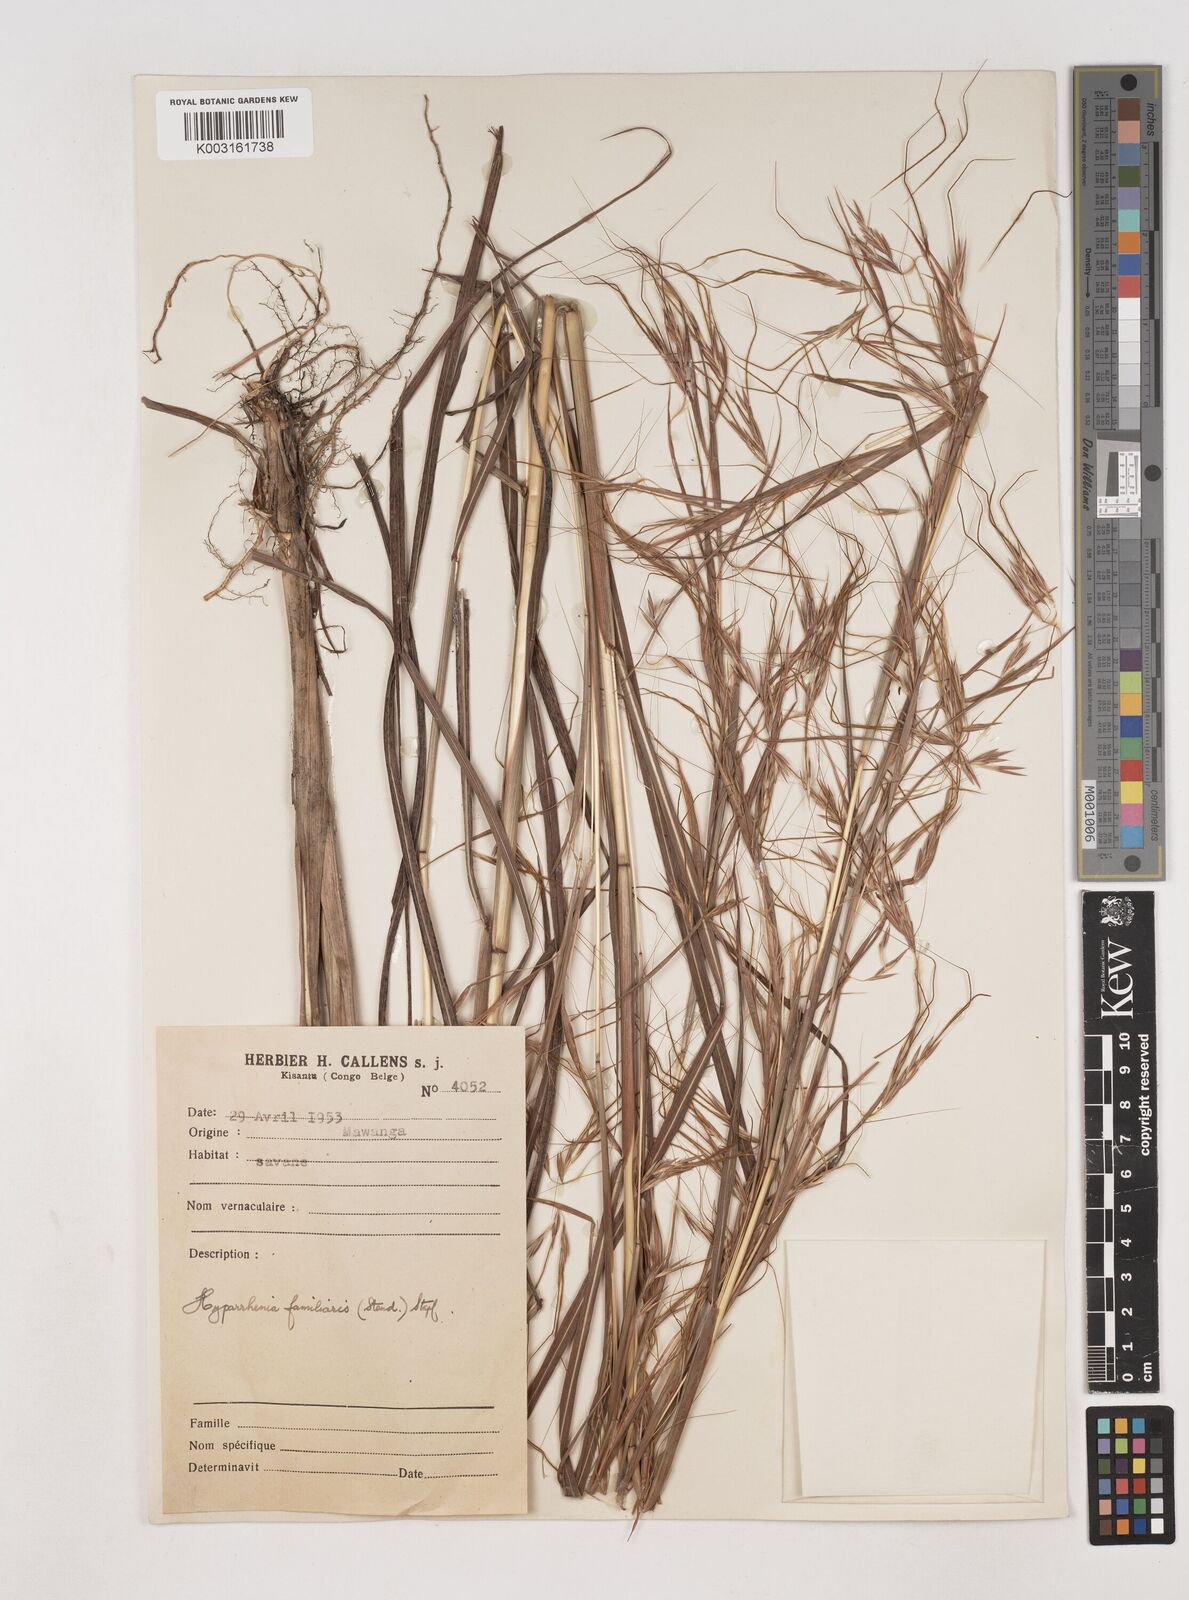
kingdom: Plantae
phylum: Tracheophyta
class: Liliopsida
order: Poales
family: Poaceae
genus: Hyparrhenia
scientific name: Hyparrhenia familiaris
